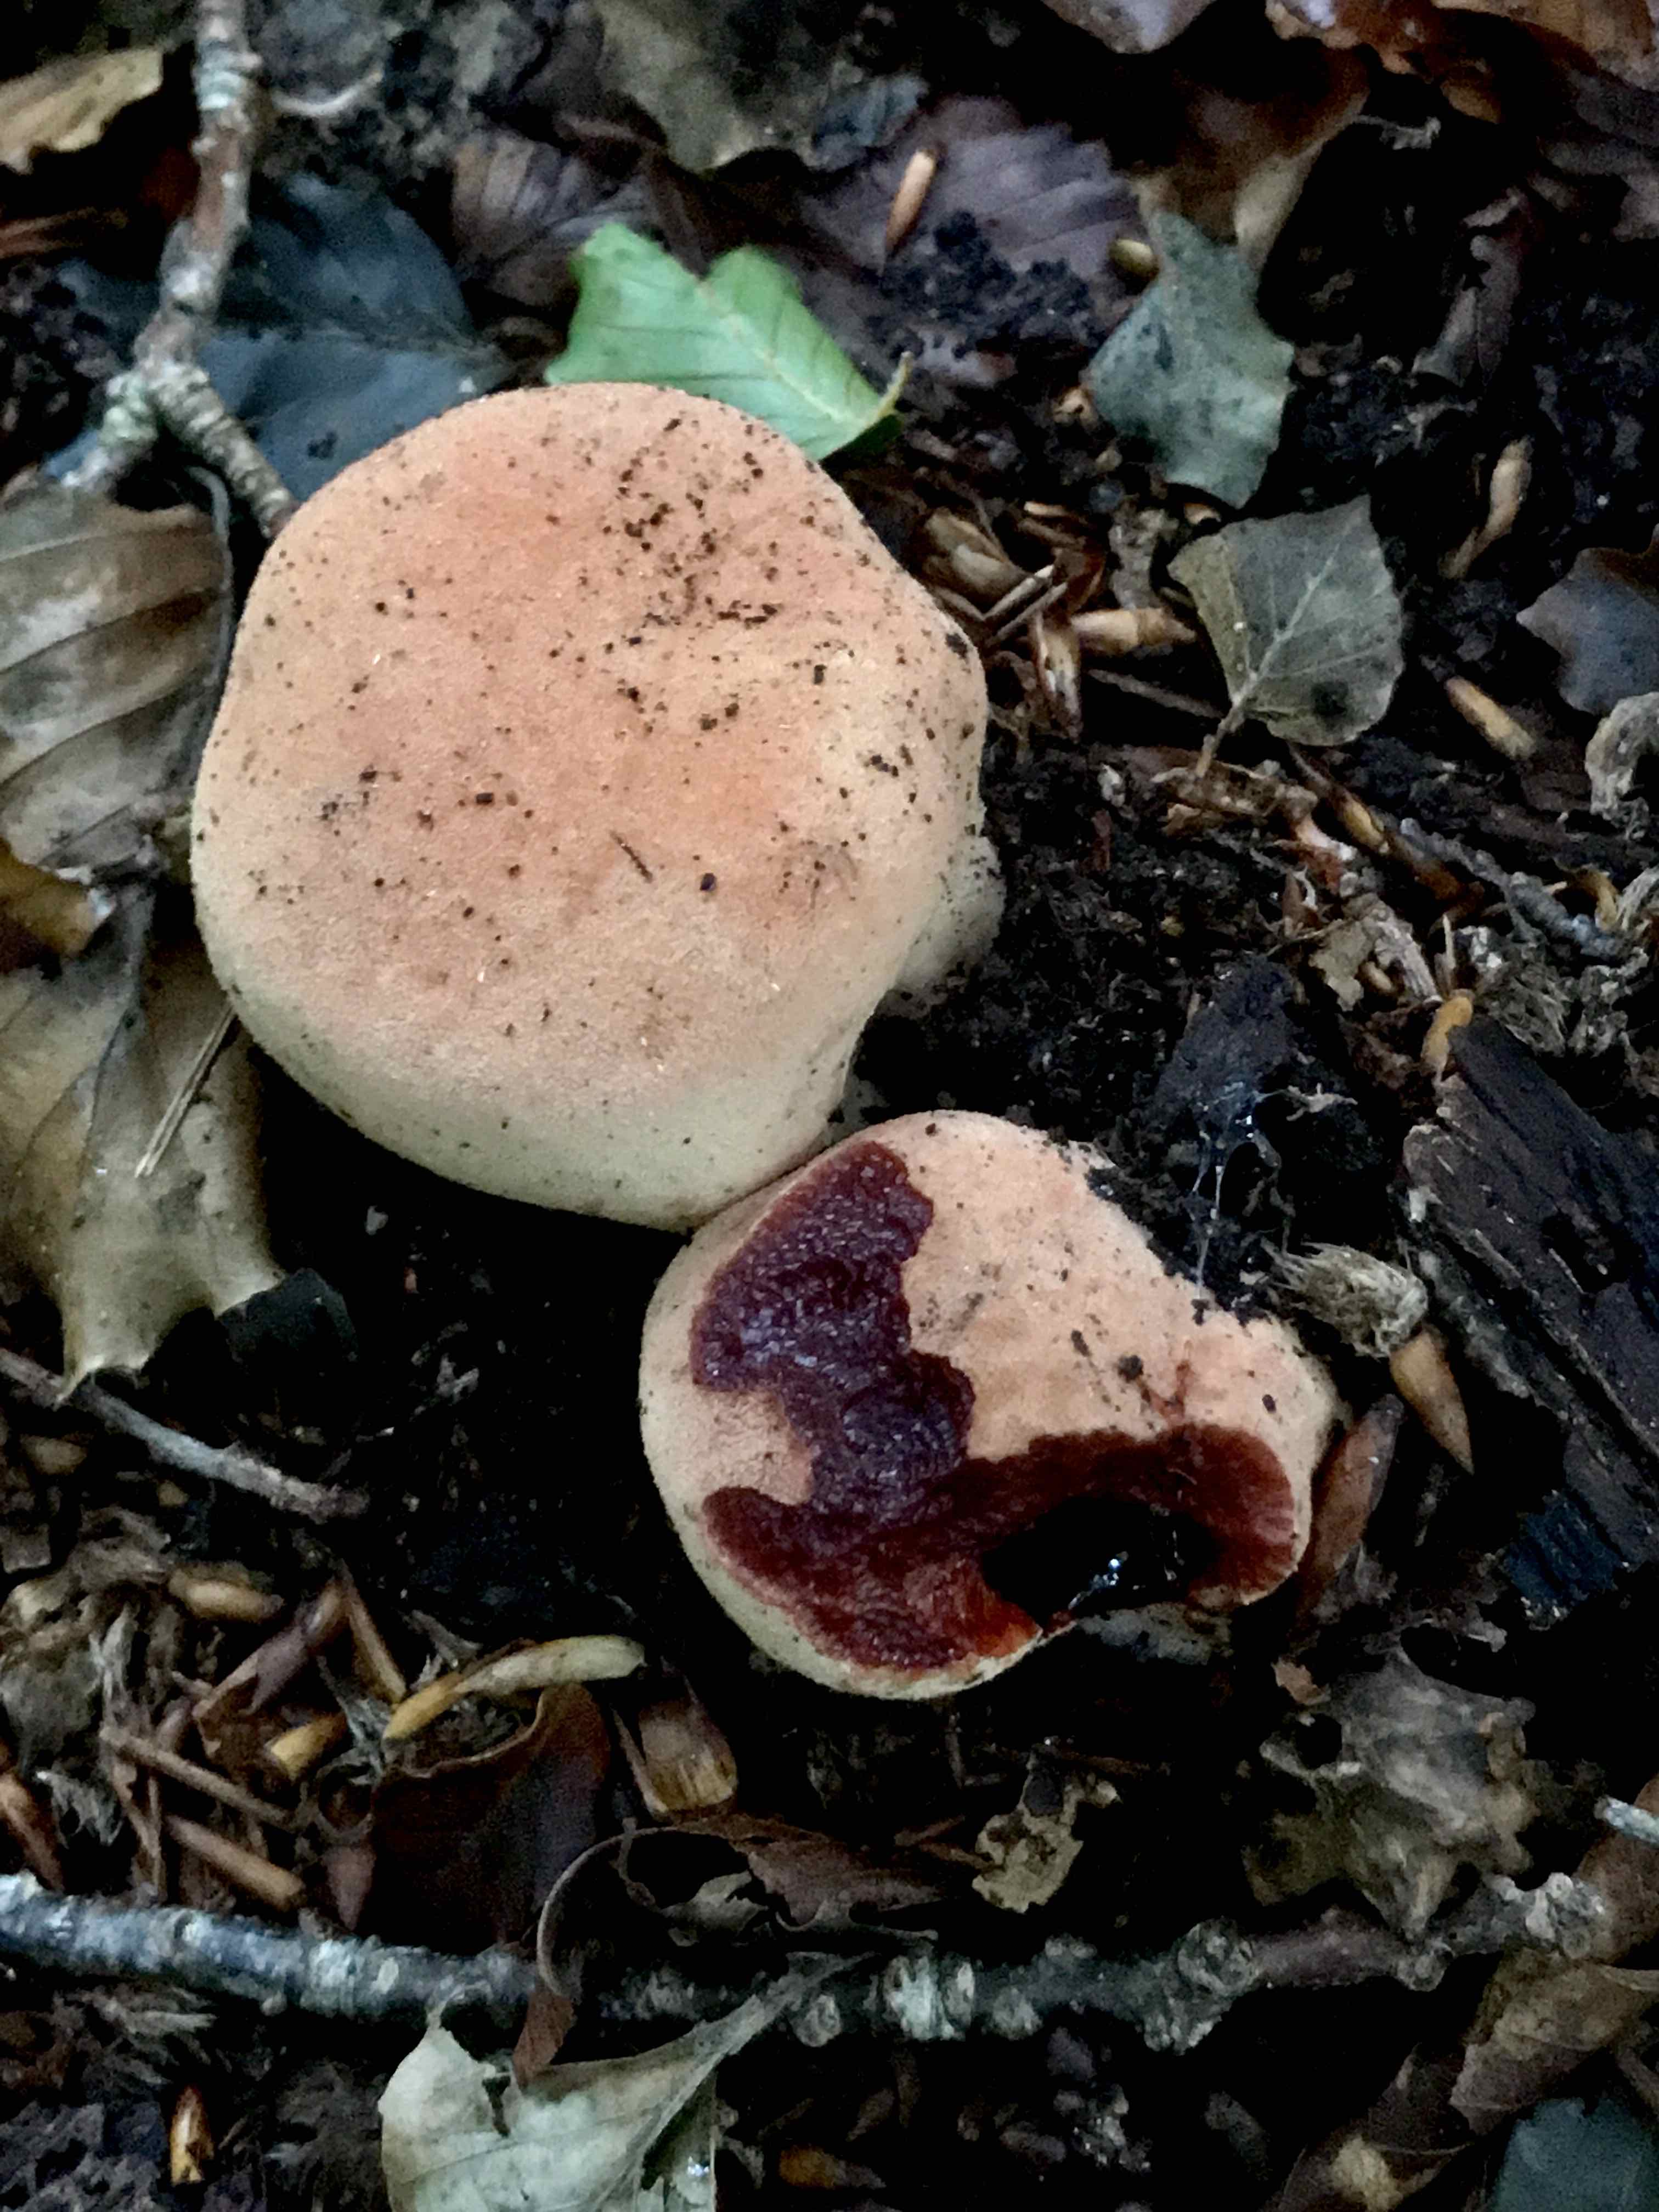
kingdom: Fungi
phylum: Basidiomycota
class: Agaricomycetes
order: Agaricales
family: Fistulinaceae
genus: Fistulina
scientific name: Fistulina hepatica
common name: oksetunge
